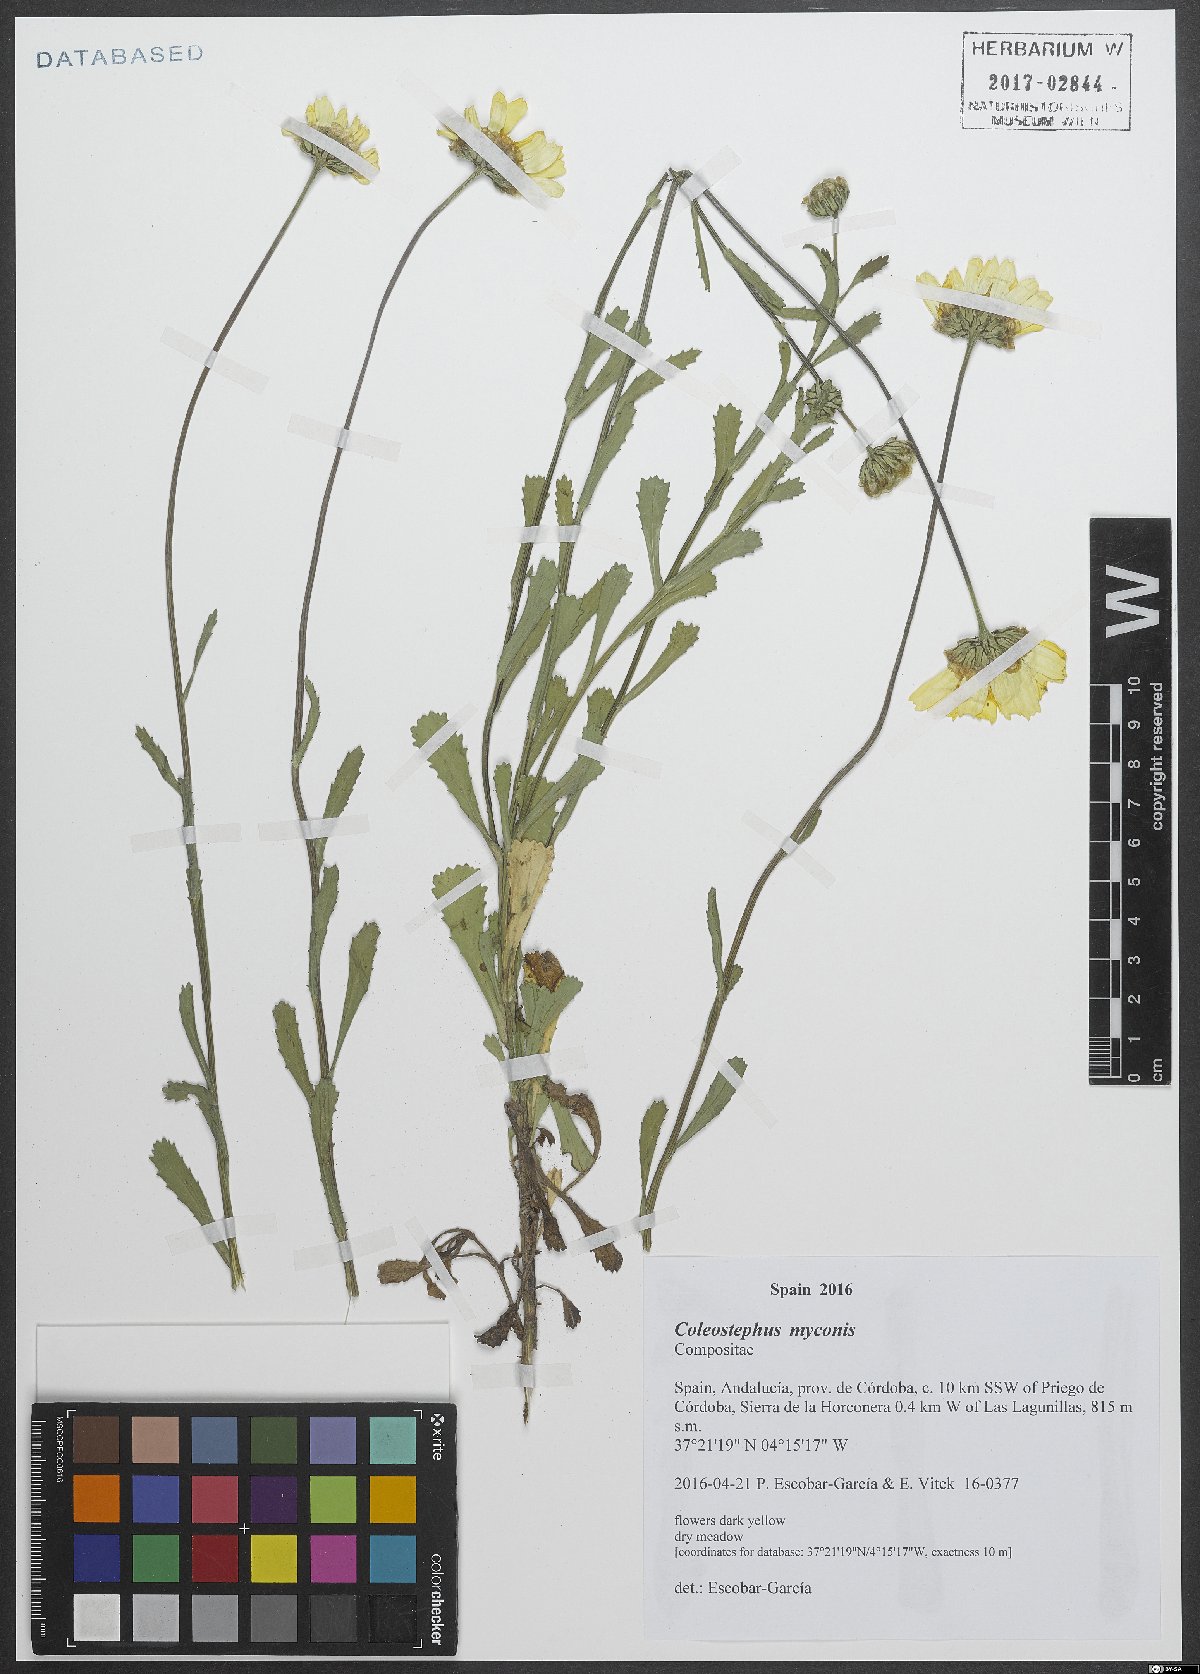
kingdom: Plantae
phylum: Tracheophyta
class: Magnoliopsida
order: Asterales
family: Asteraceae
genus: Coleostephus
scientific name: Coleostephus myconis
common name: Mediterranean marigold
